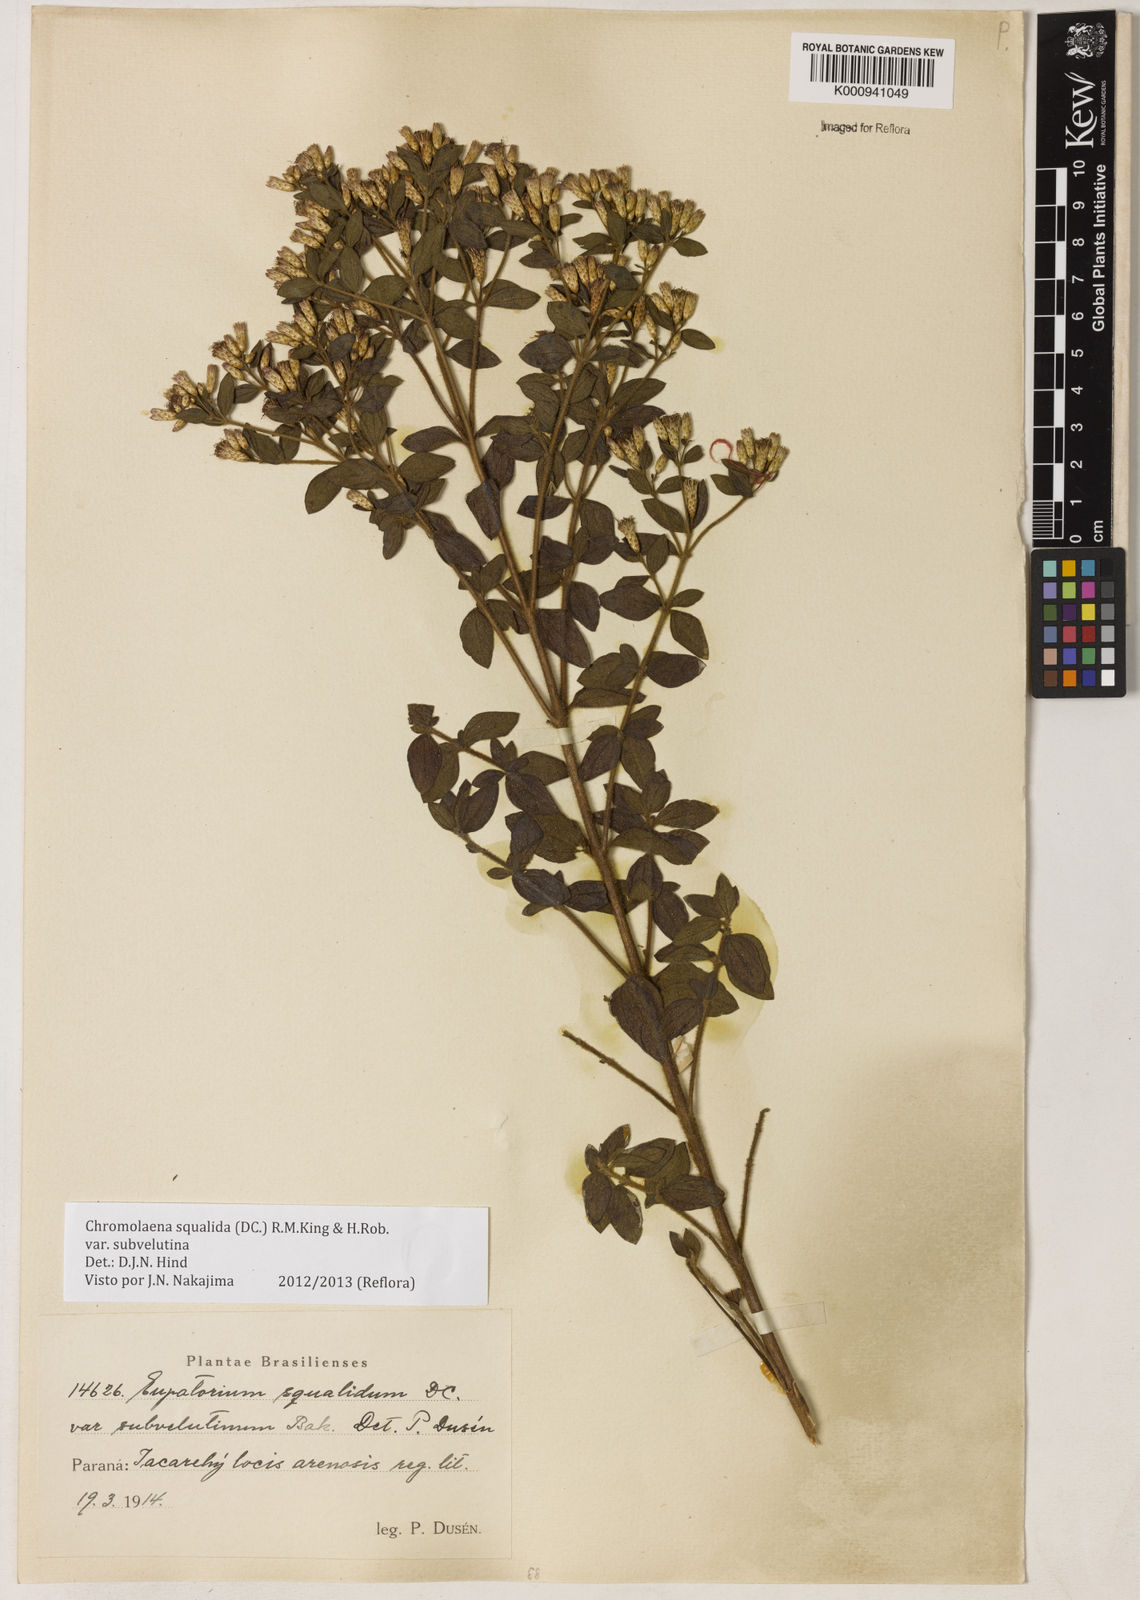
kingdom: Plantae
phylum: Tracheophyta
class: Magnoliopsida
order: Asterales
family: Asteraceae
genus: Chromolaena
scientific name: Chromolaena squalida
